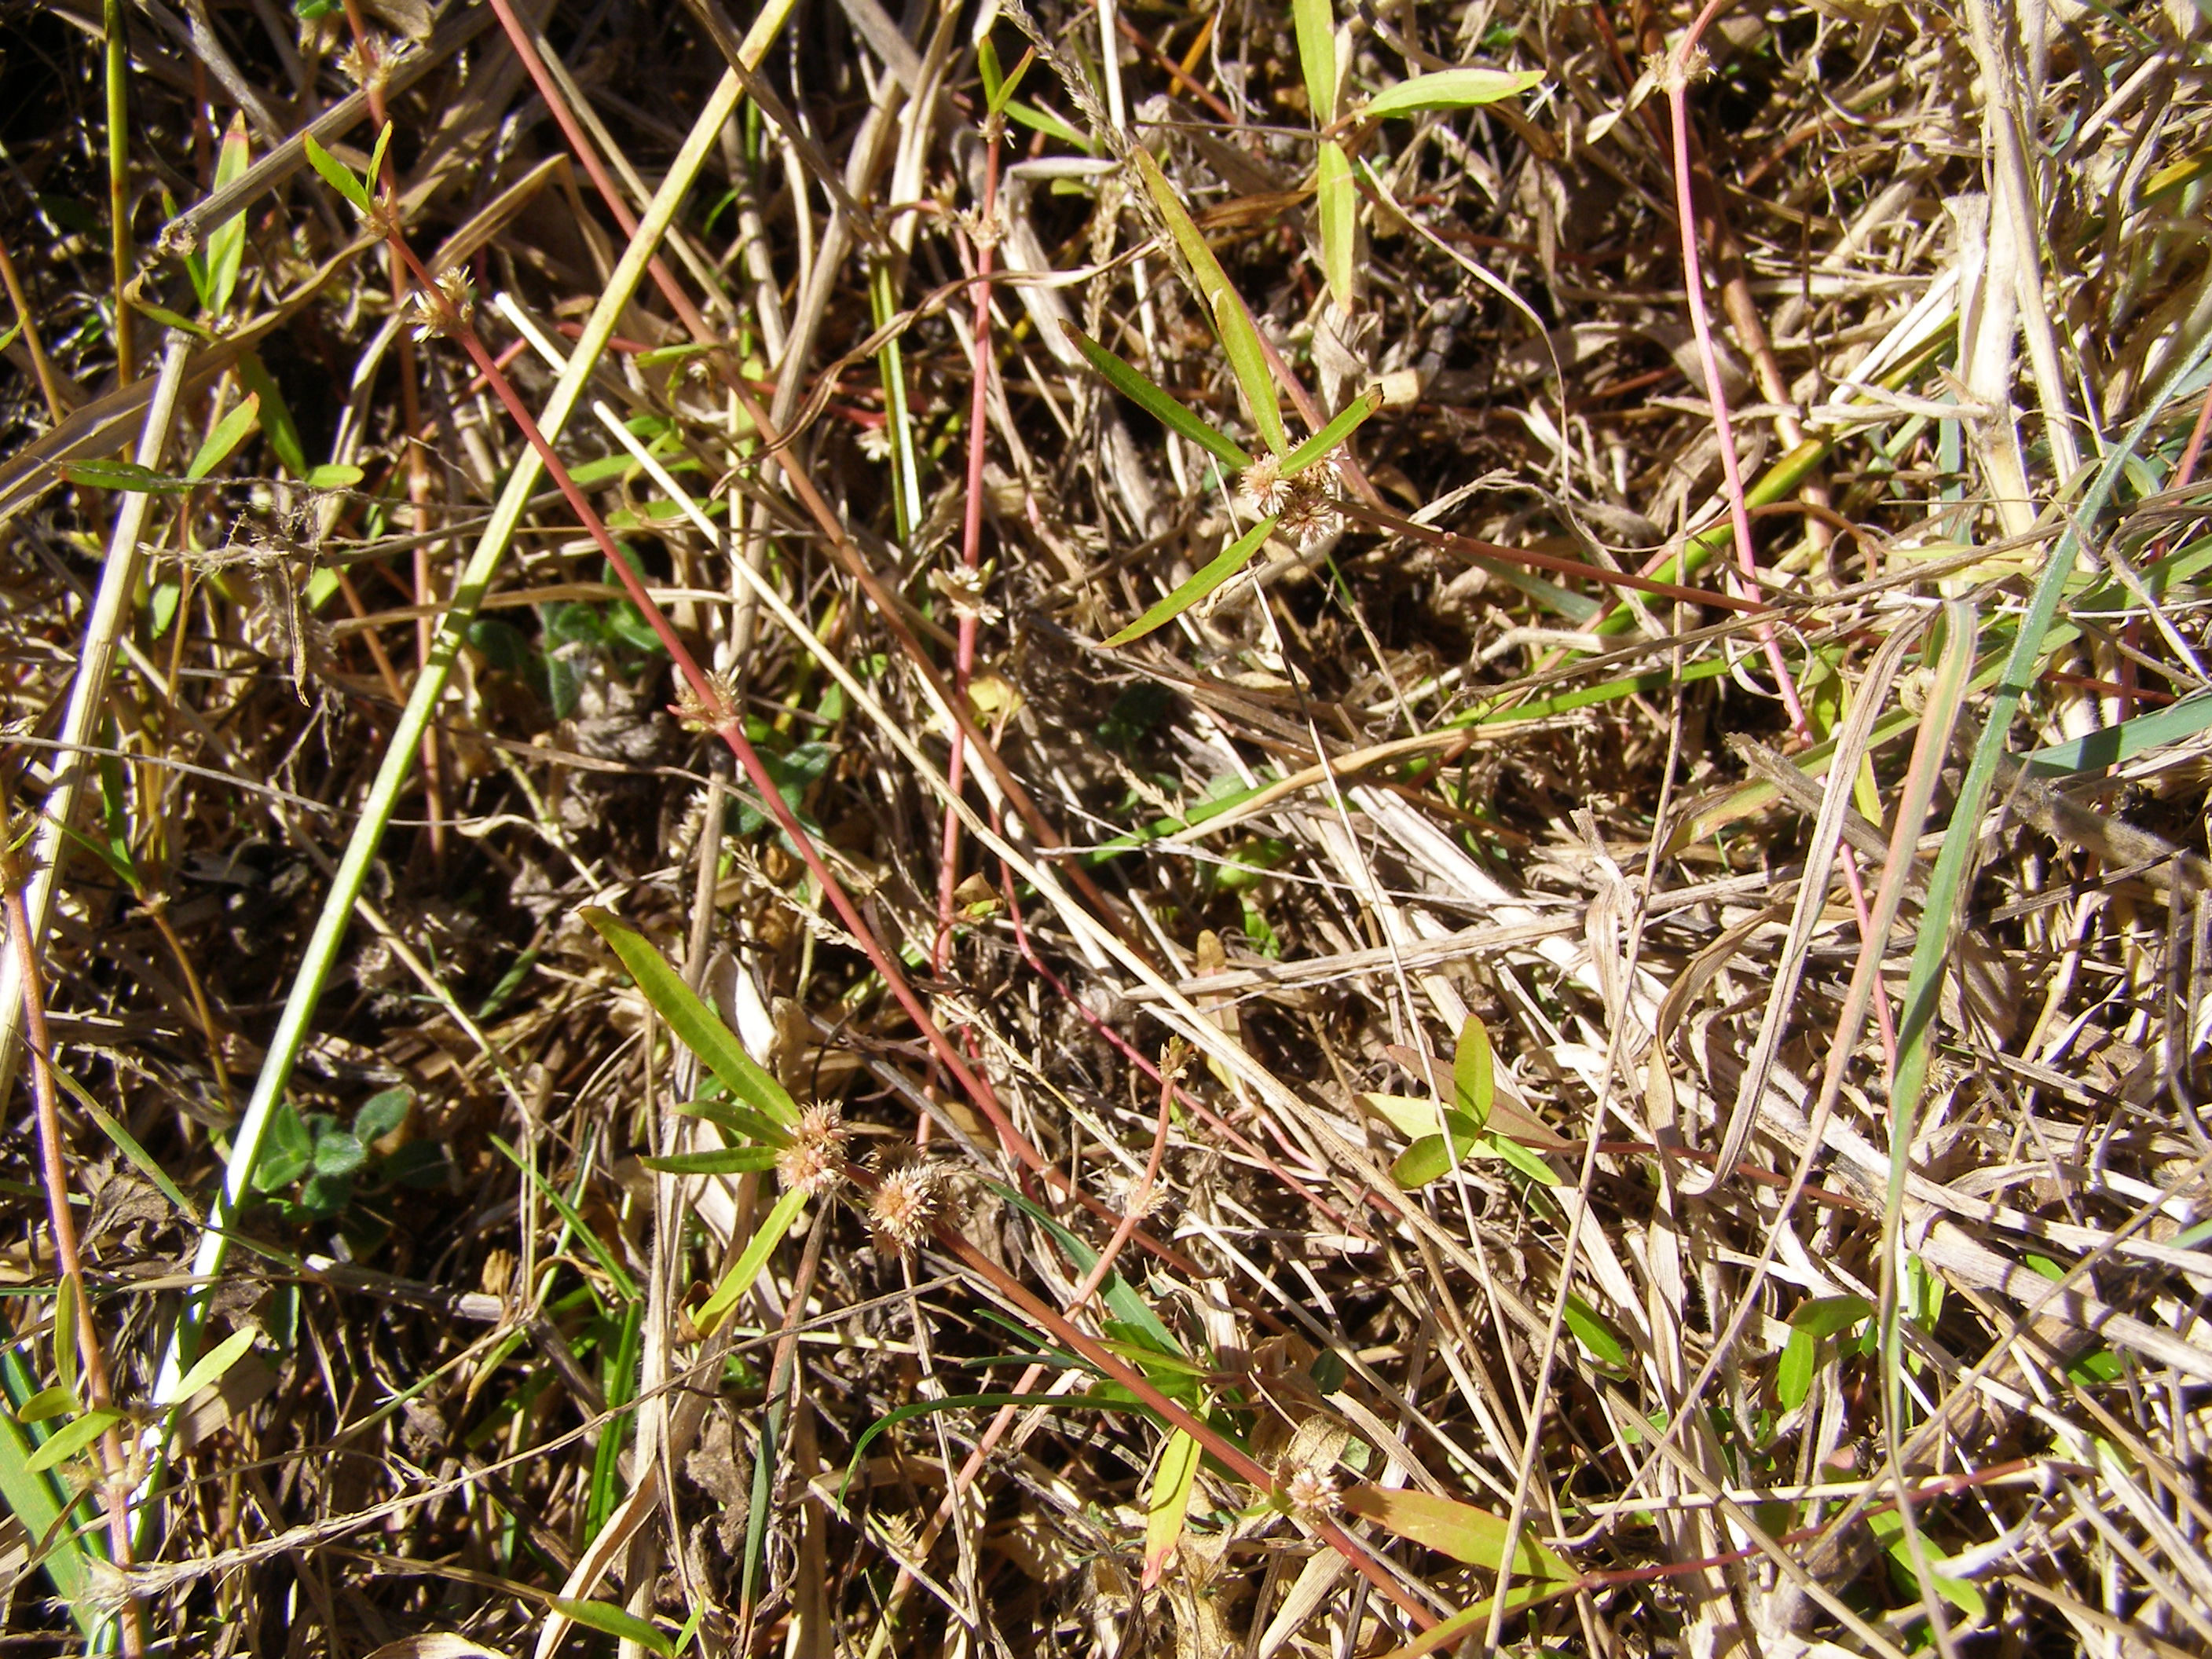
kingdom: Plantae
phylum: Tracheophyta
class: Magnoliopsida
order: Ericales
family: Clethraceae
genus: Clethra
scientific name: Clethra lanata
